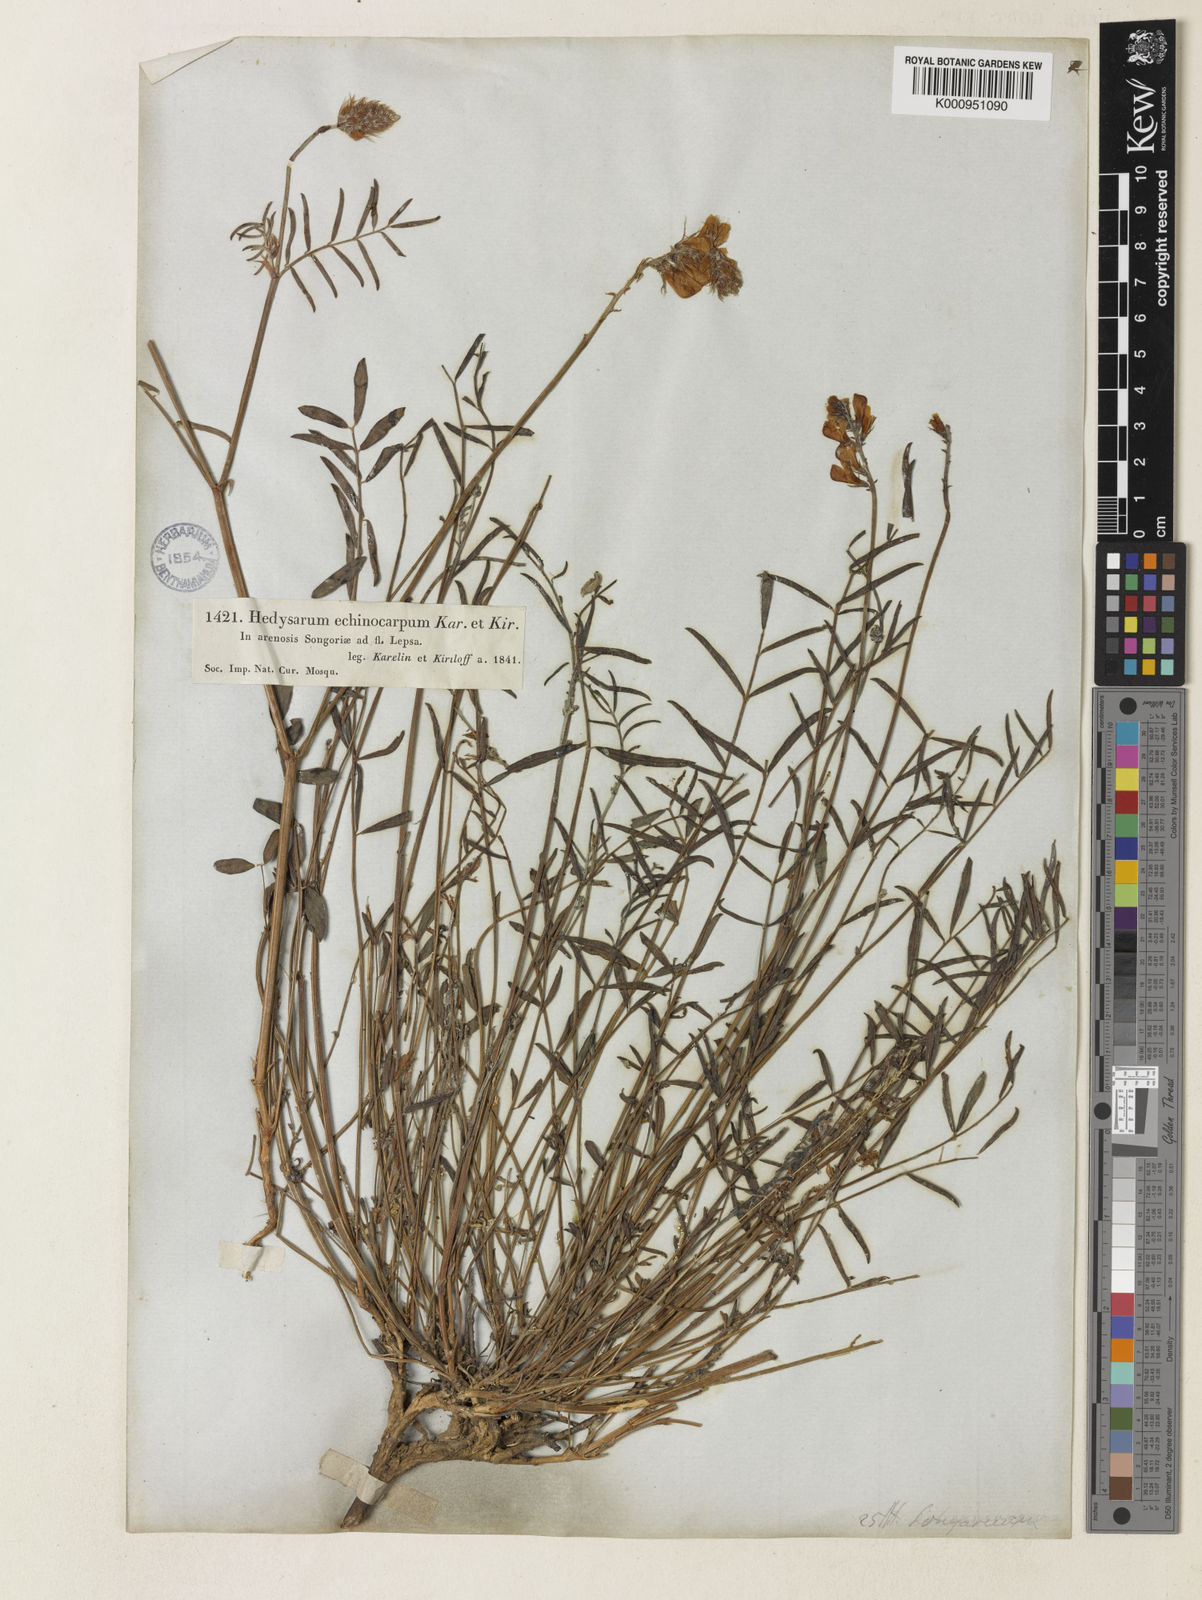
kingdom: Plantae
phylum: Tracheophyta
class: Magnoliopsida
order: Fabales
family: Fabaceae
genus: Hedysarum
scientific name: Hedysarum songaricum
